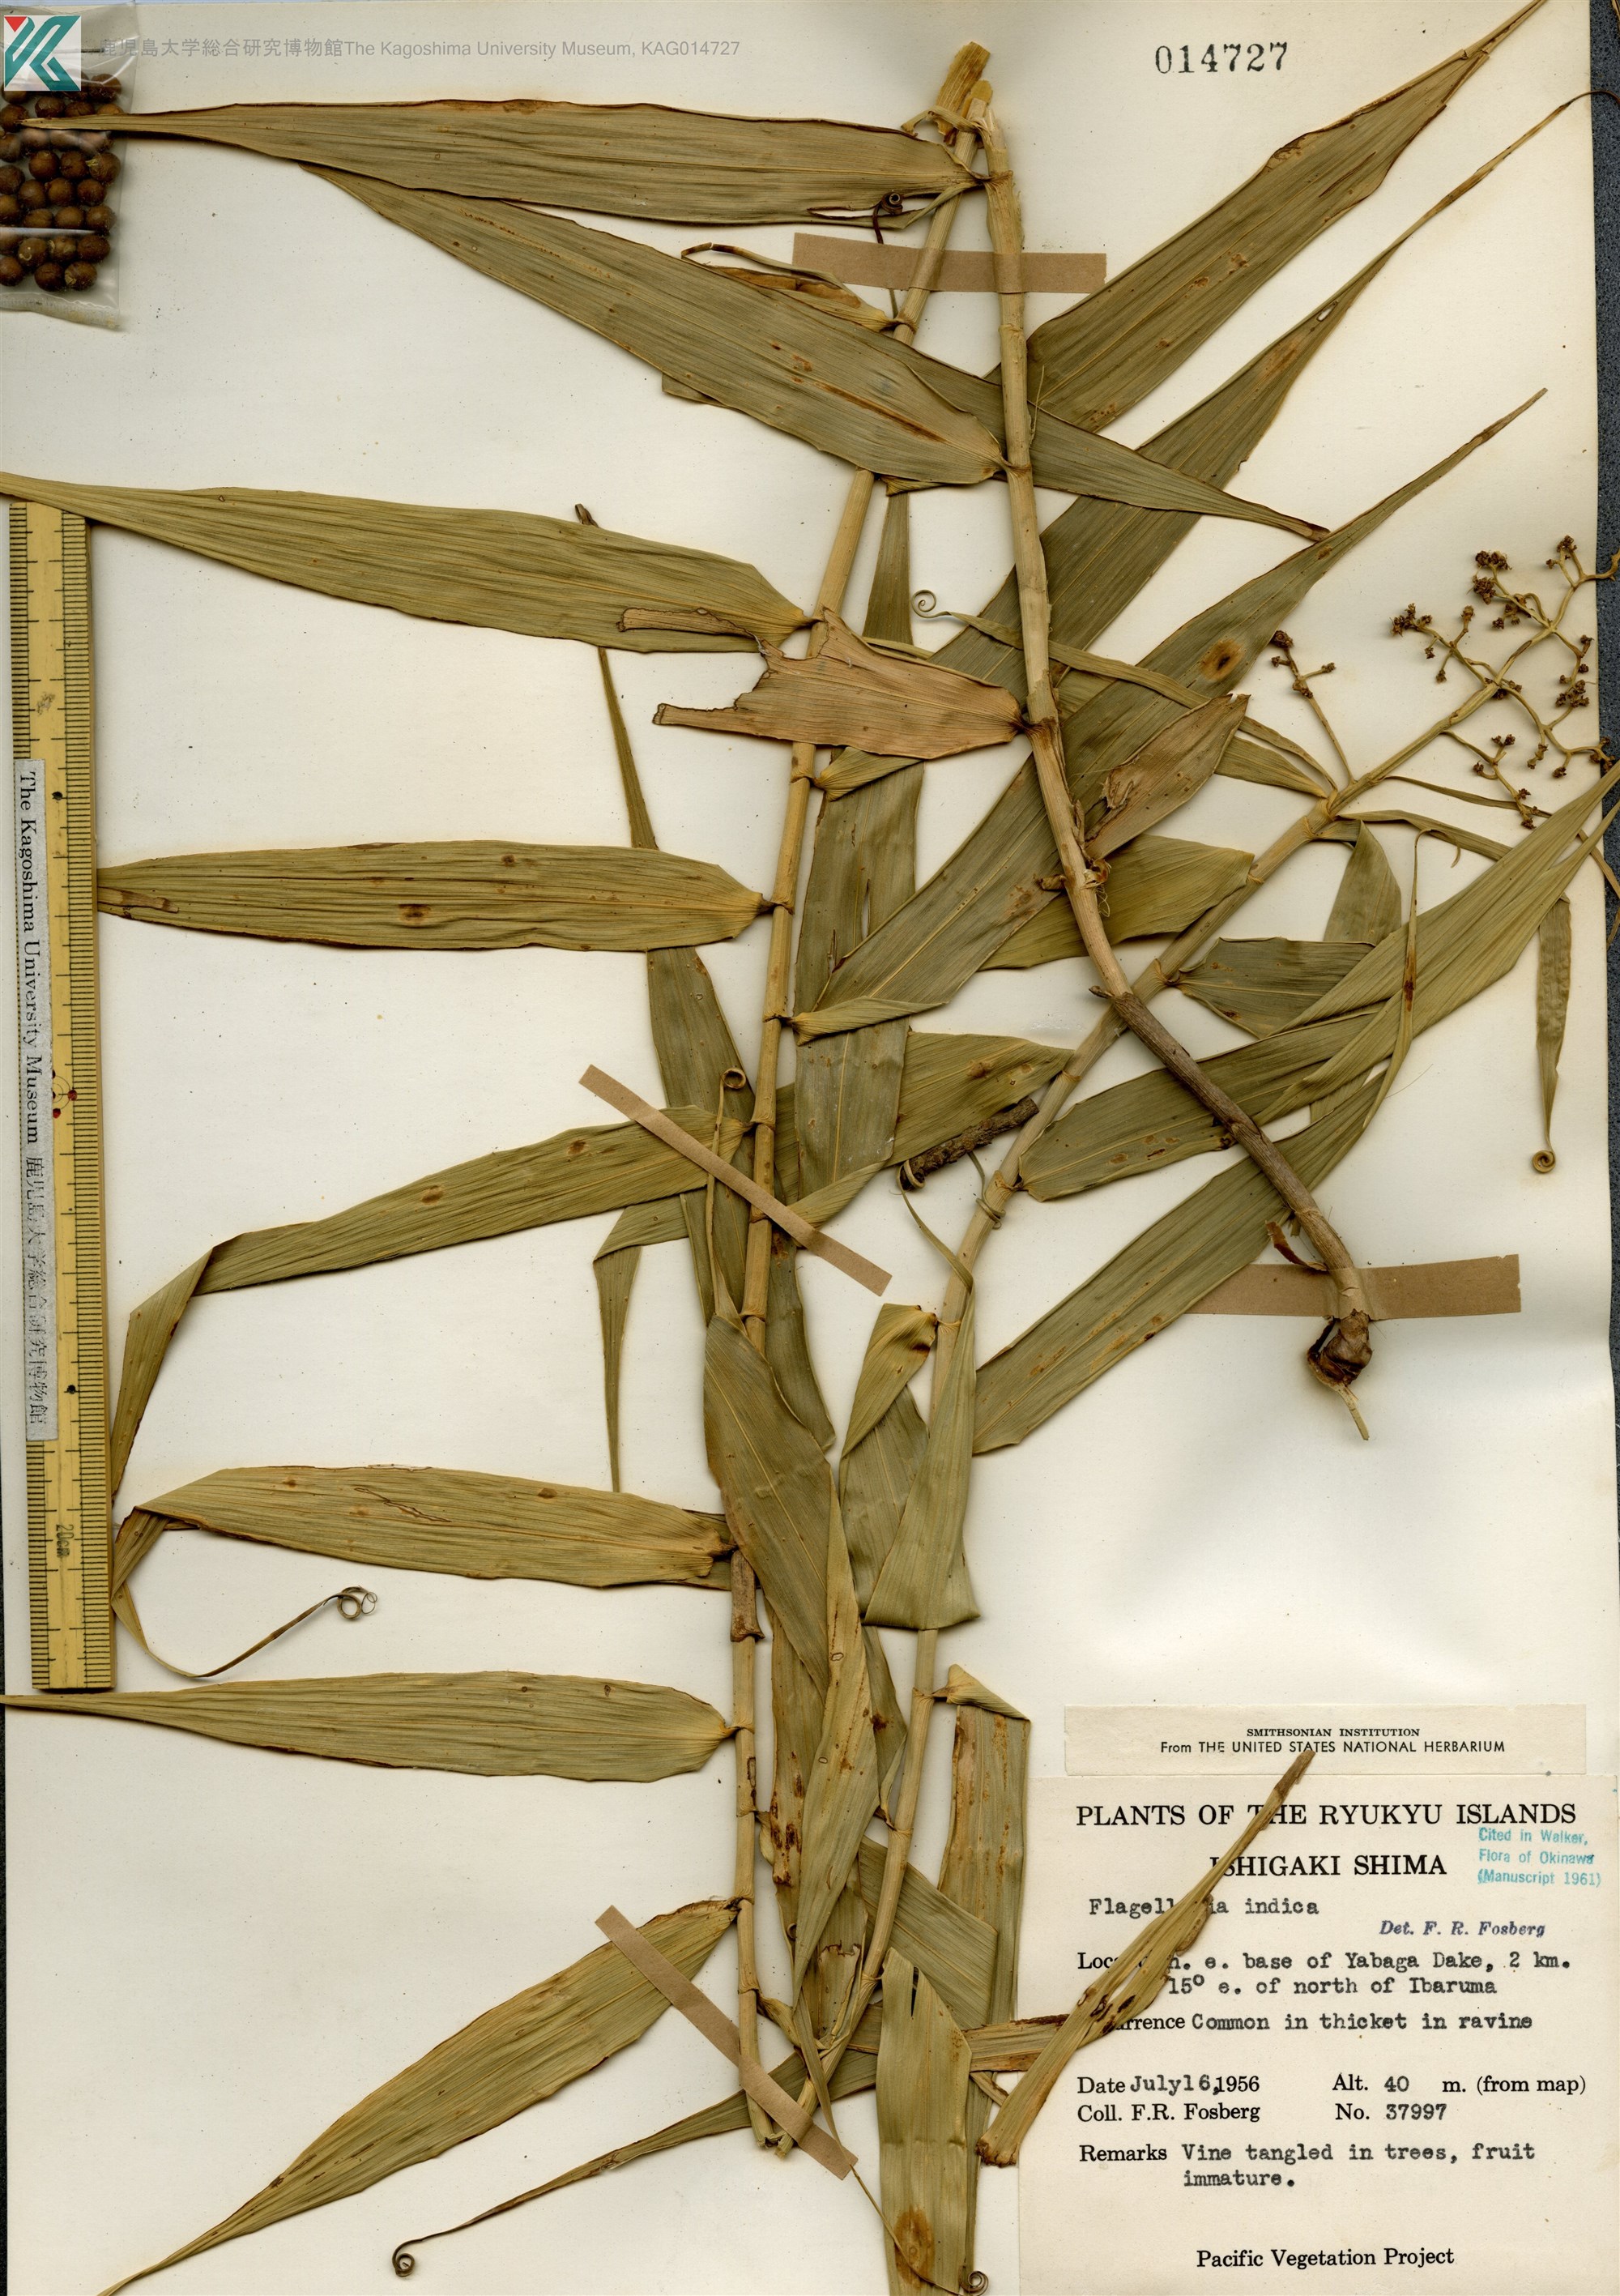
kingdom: Plantae
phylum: Tracheophyta
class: Liliopsida
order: Poales
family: Flagellariaceae
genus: Flagellaria
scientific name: Flagellaria indica
